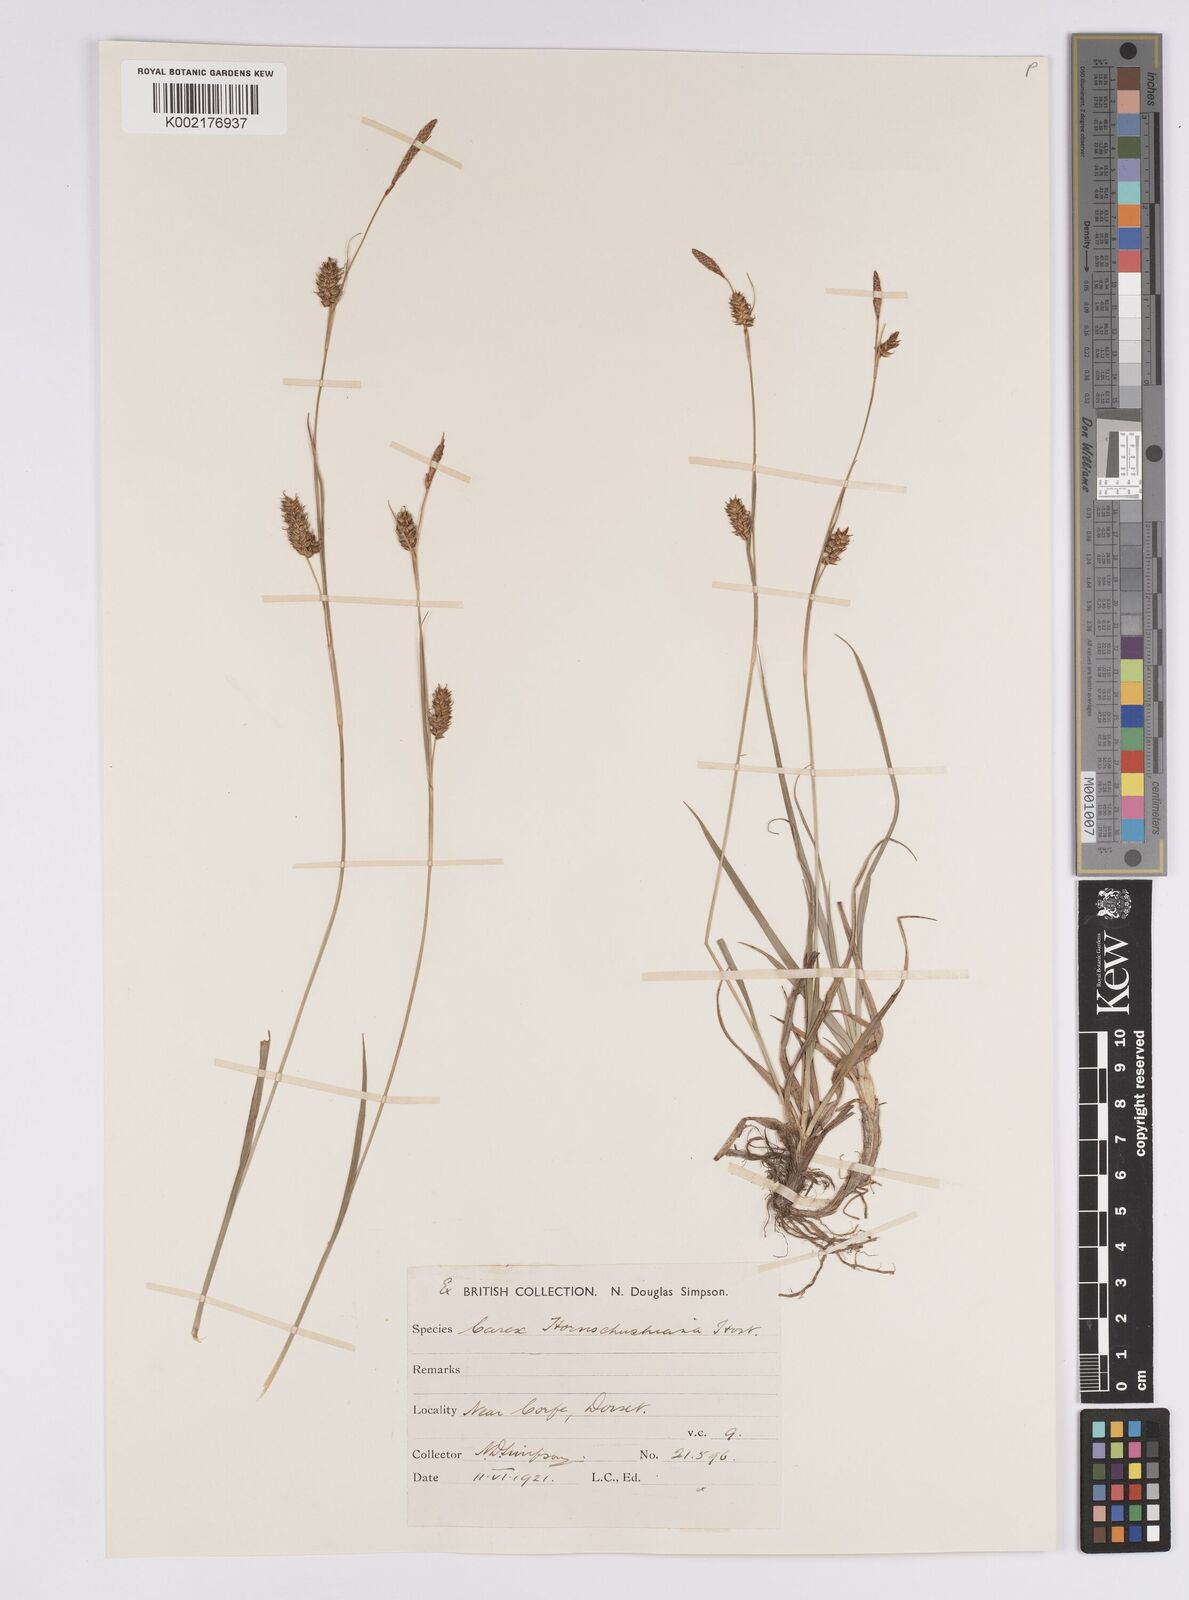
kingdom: Plantae
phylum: Tracheophyta
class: Liliopsida
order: Poales
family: Cyperaceae
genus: Carex
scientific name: Carex hostiana
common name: Tawny sedge
